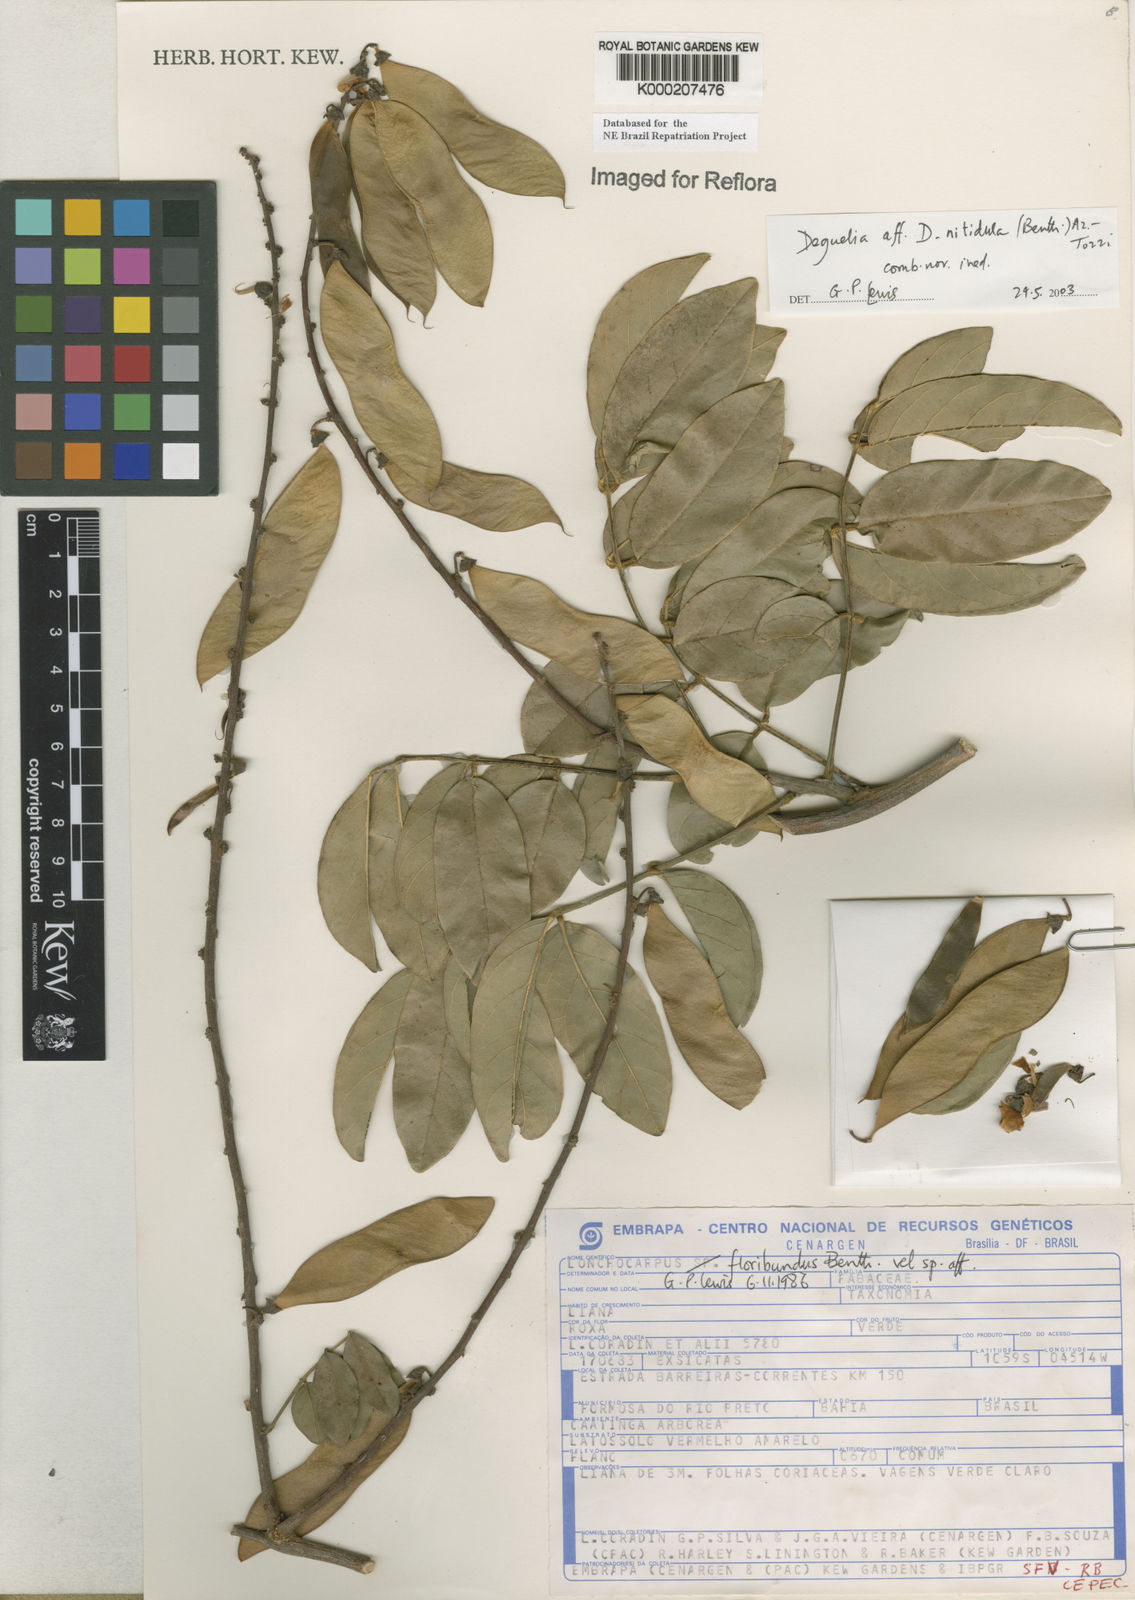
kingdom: Plantae
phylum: Tracheophyta
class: Magnoliopsida
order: Fabales
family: Fabaceae
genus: Deguelia
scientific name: Deguelia
